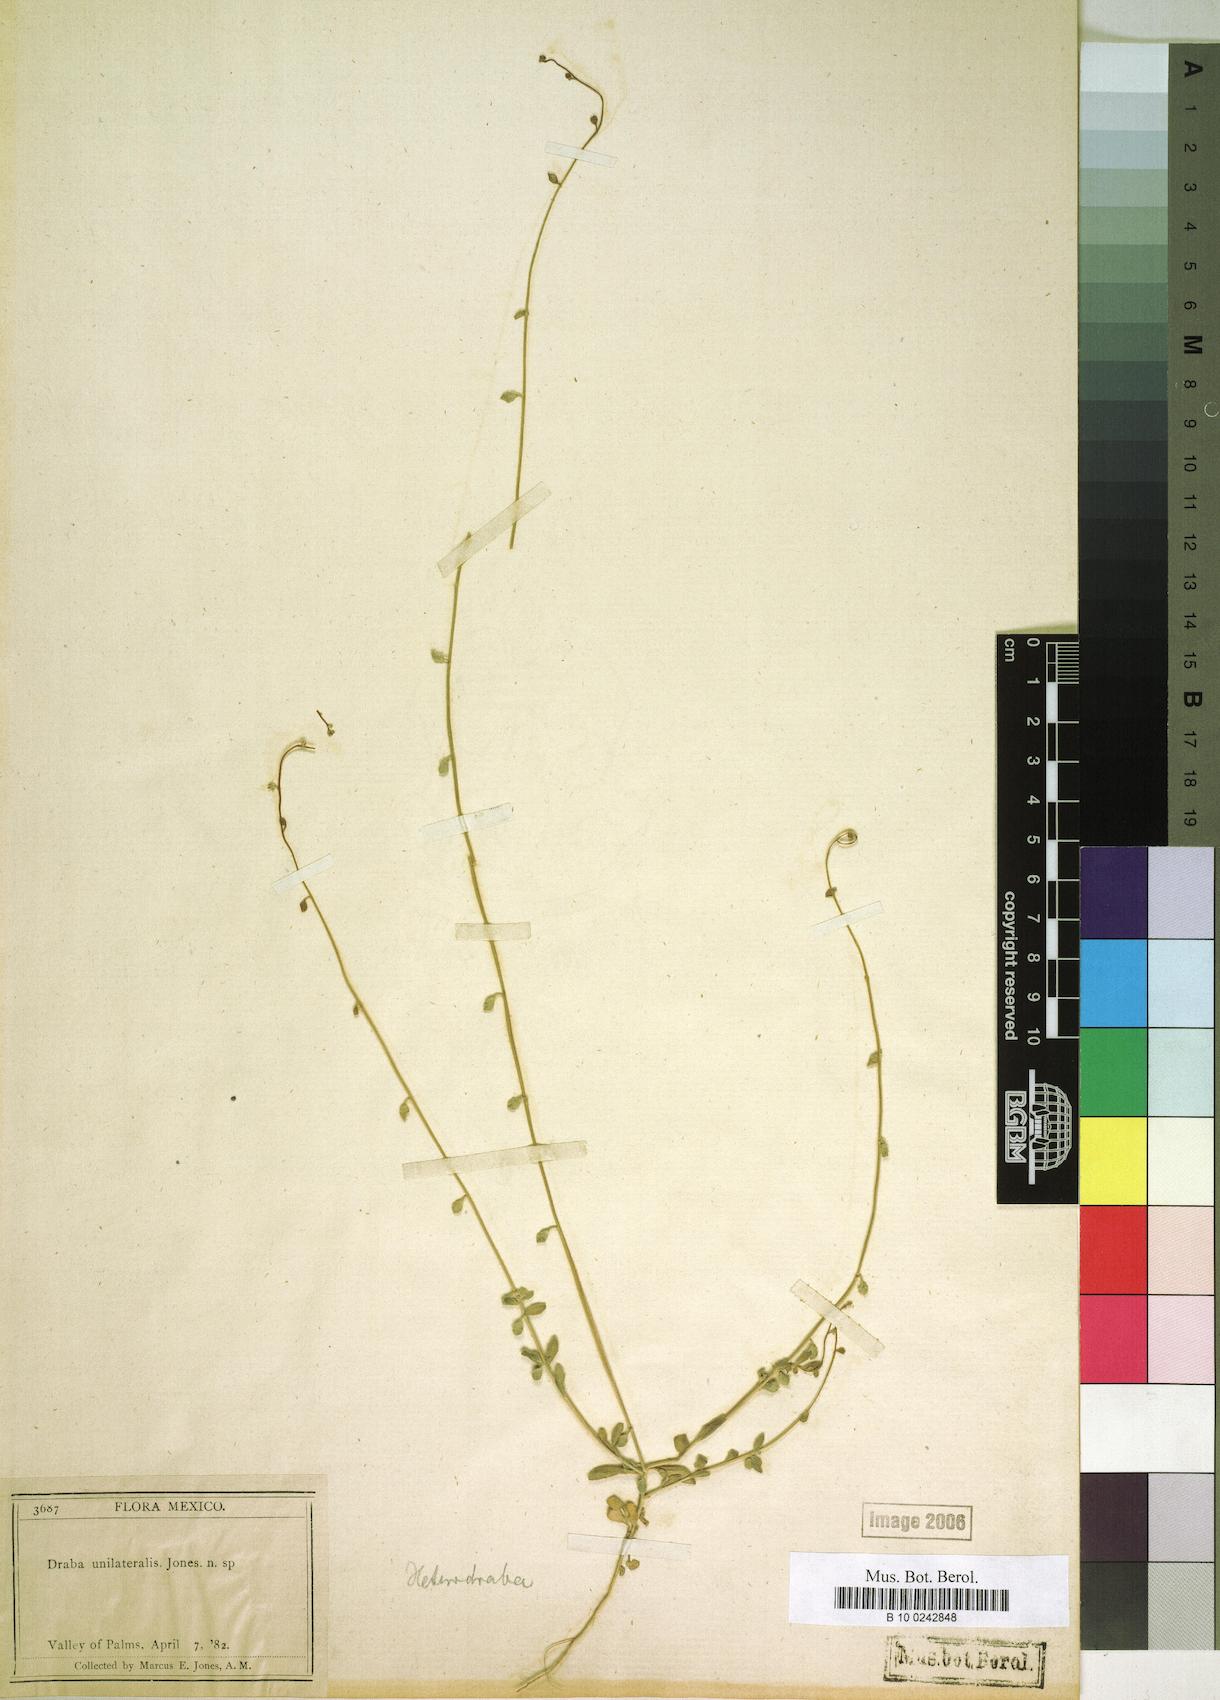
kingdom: Plantae
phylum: Tracheophyta
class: Magnoliopsida
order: Brassicales
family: Brassicaceae
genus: Athysanus
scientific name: Athysanus unilateralis
